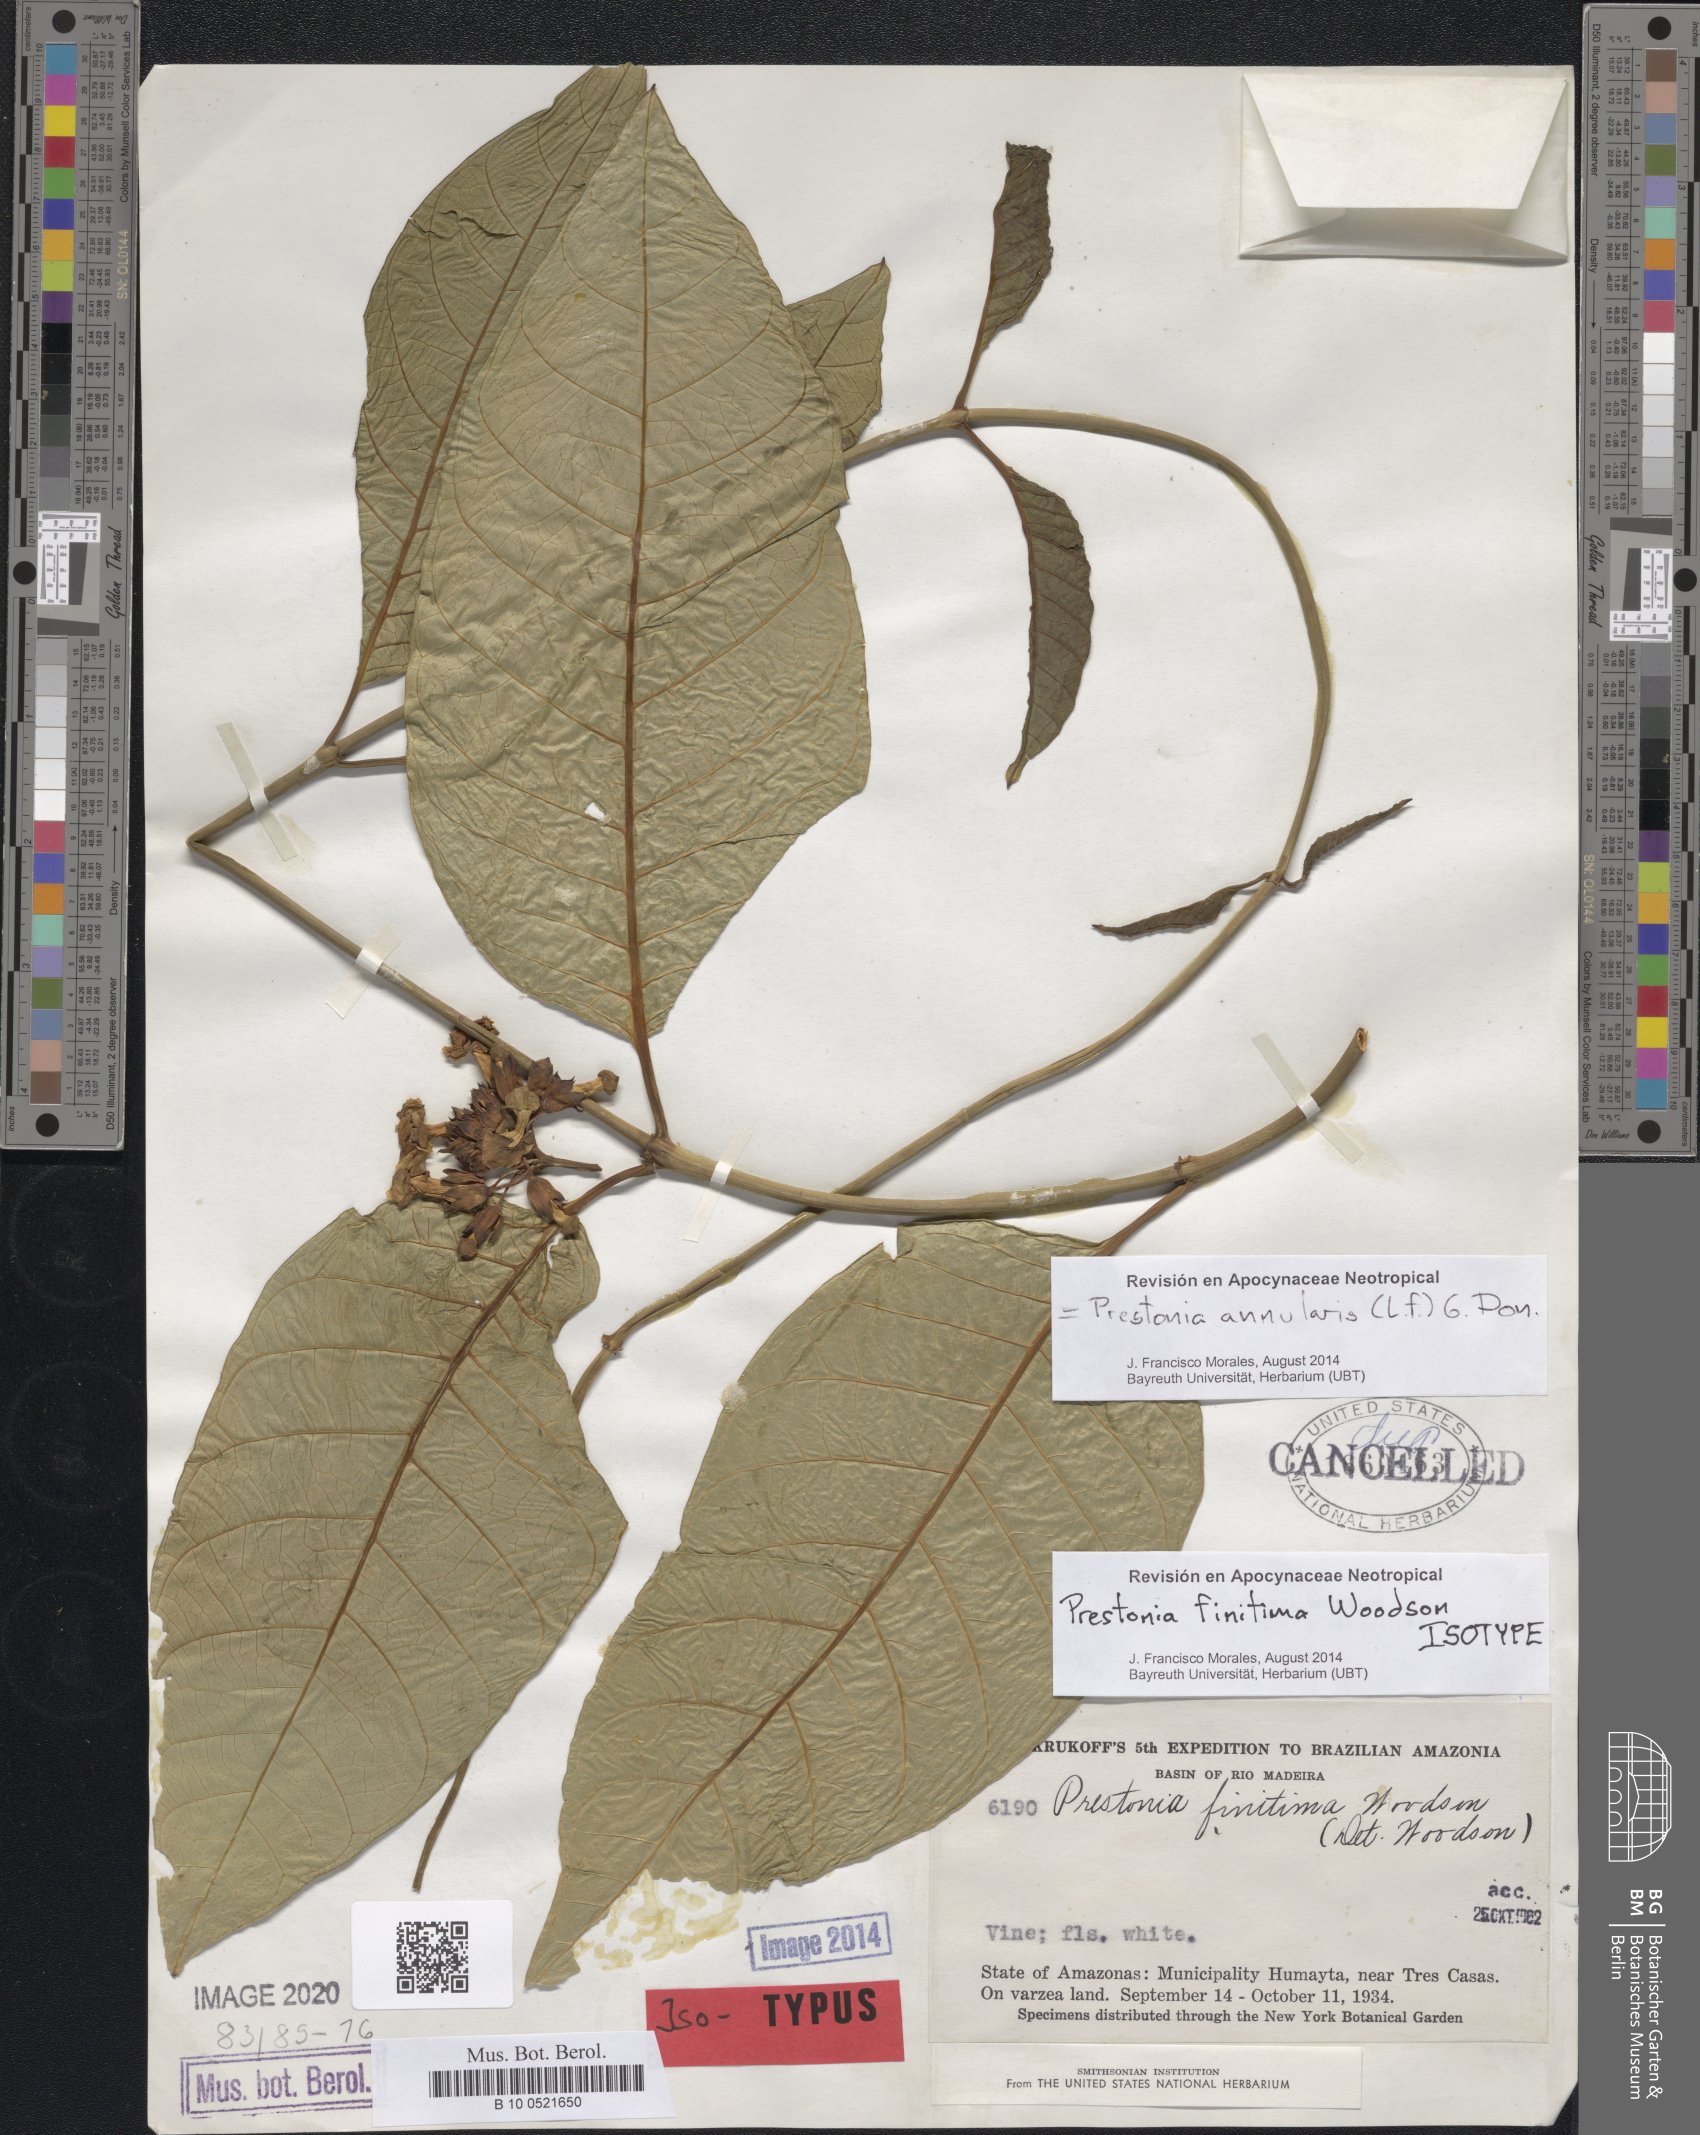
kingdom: Plantae
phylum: Tracheophyta
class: Magnoliopsida
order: Gentianales
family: Apocynaceae
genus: Prestonia
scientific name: Prestonia annularis
